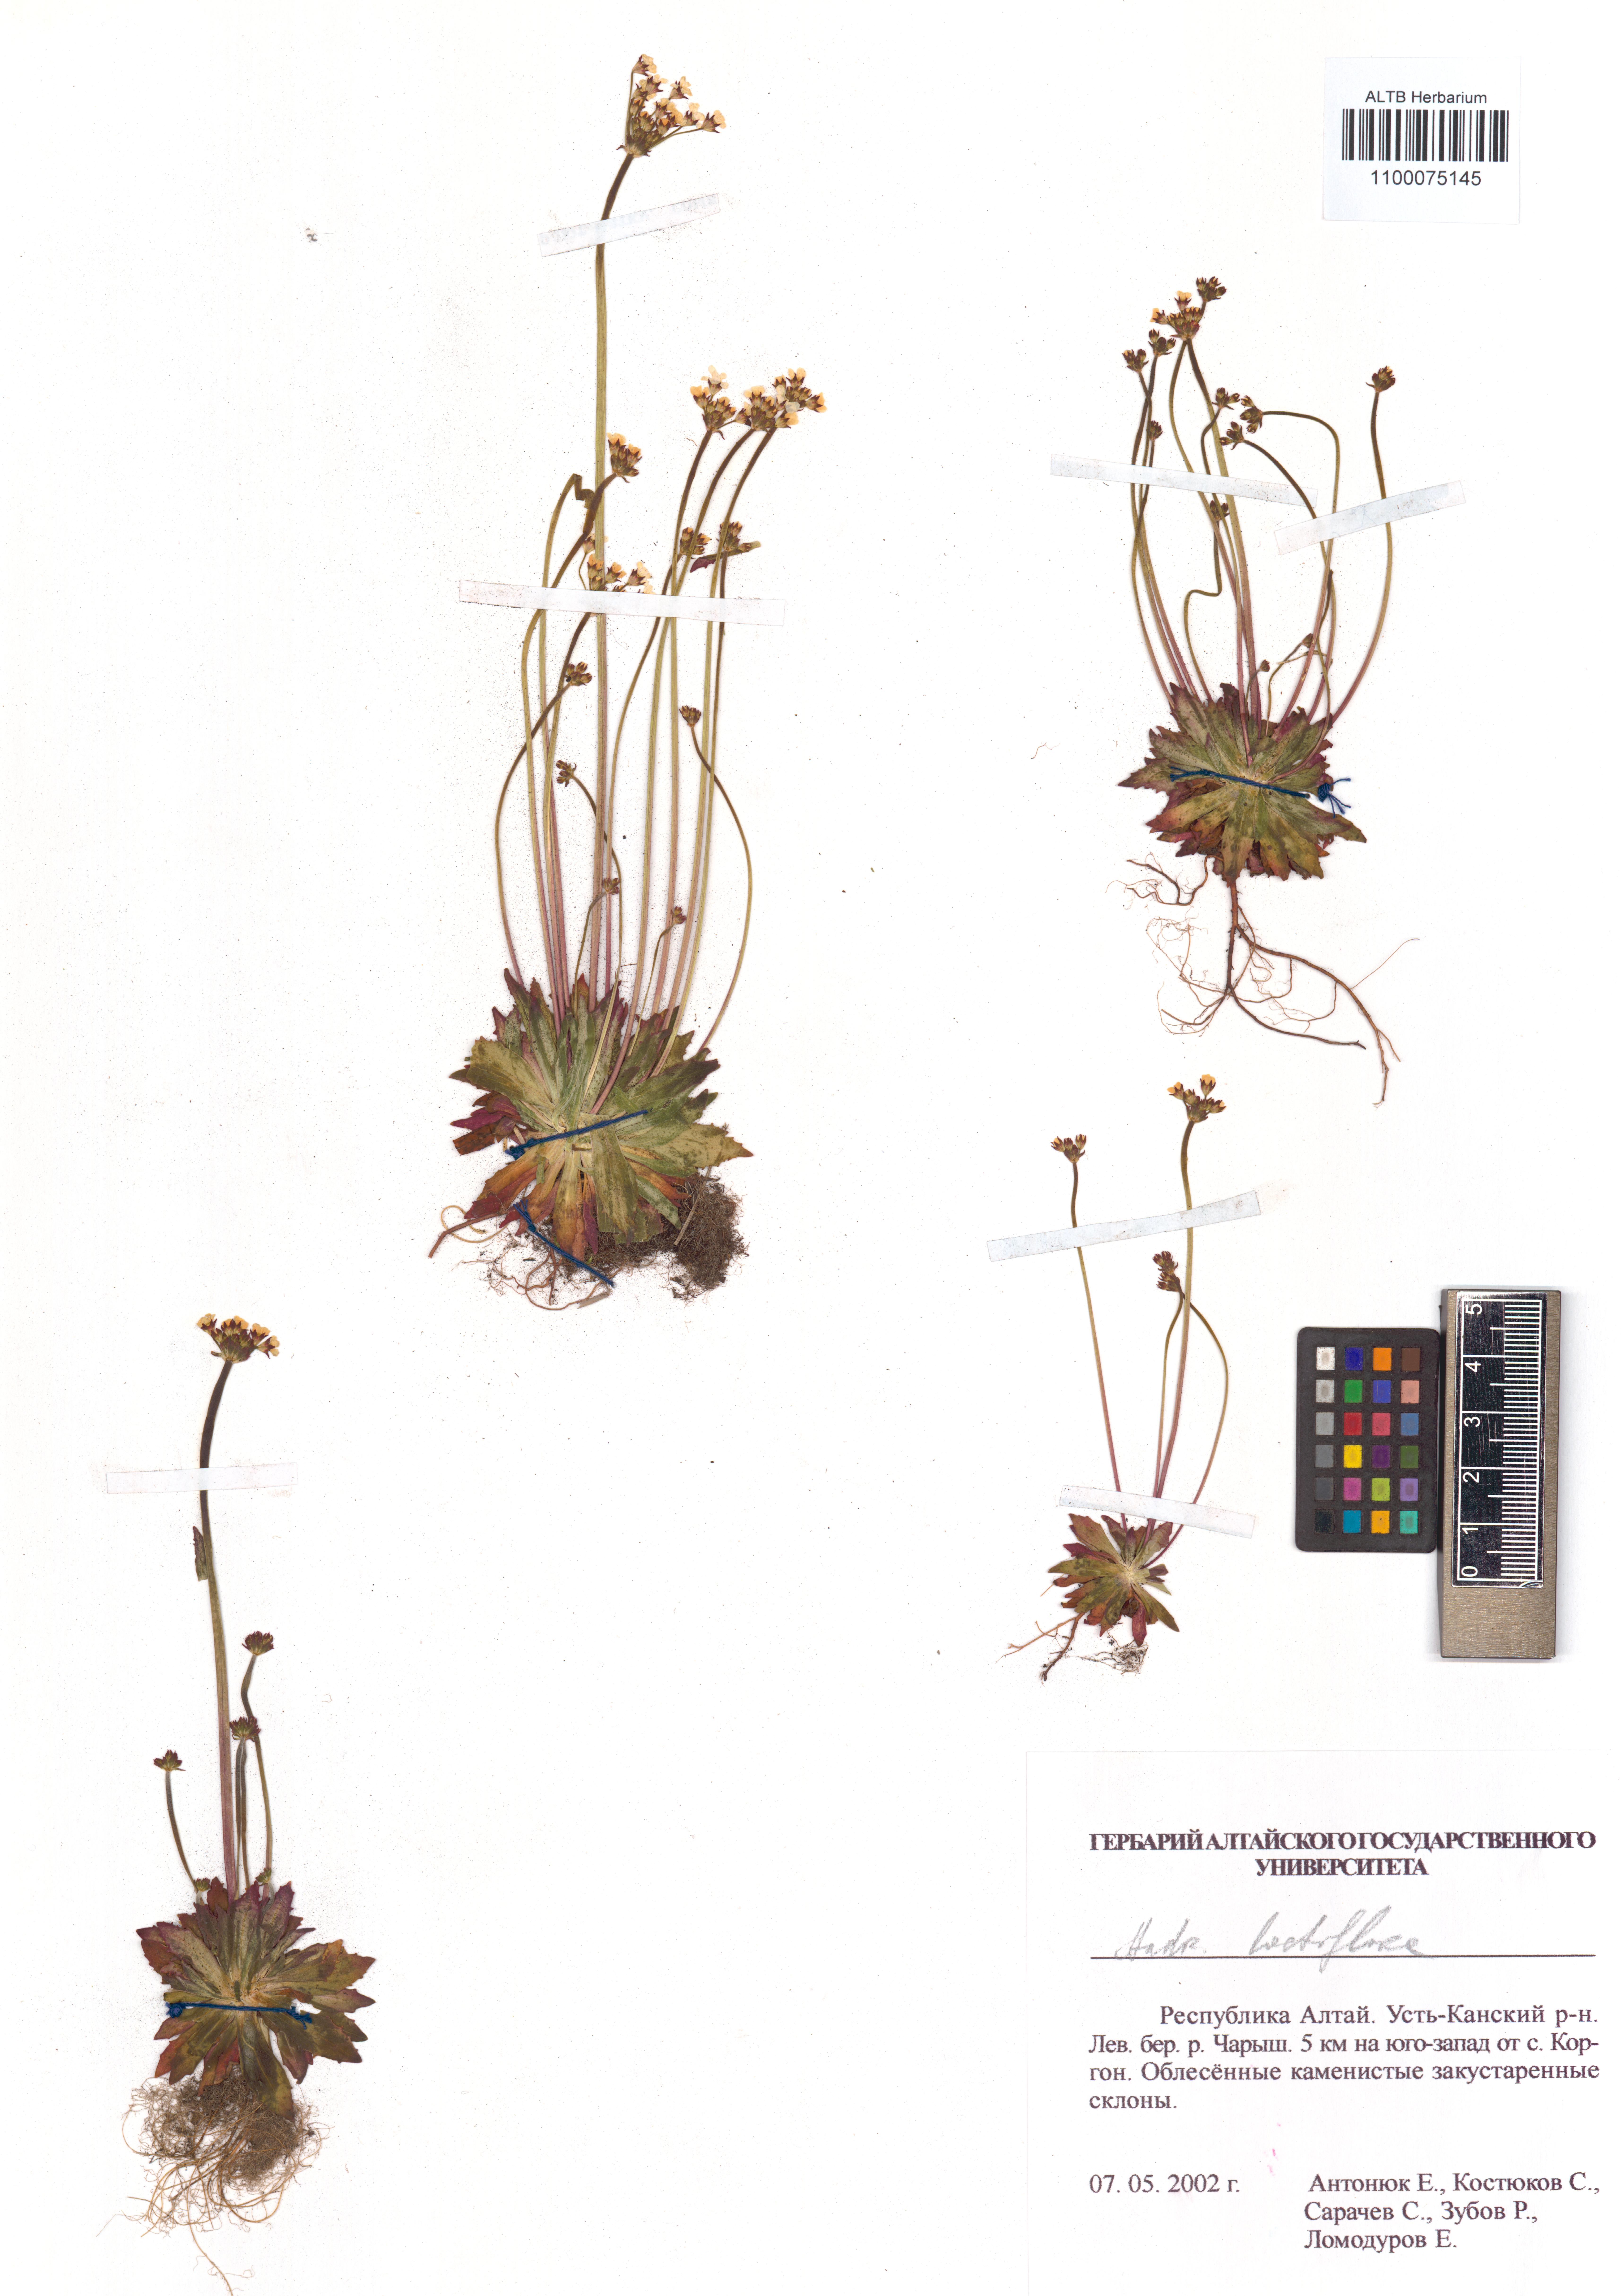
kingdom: Plantae
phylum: Tracheophyta
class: Magnoliopsida
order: Ericales
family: Primulaceae
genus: Androsace
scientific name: Androsace lactiflora
